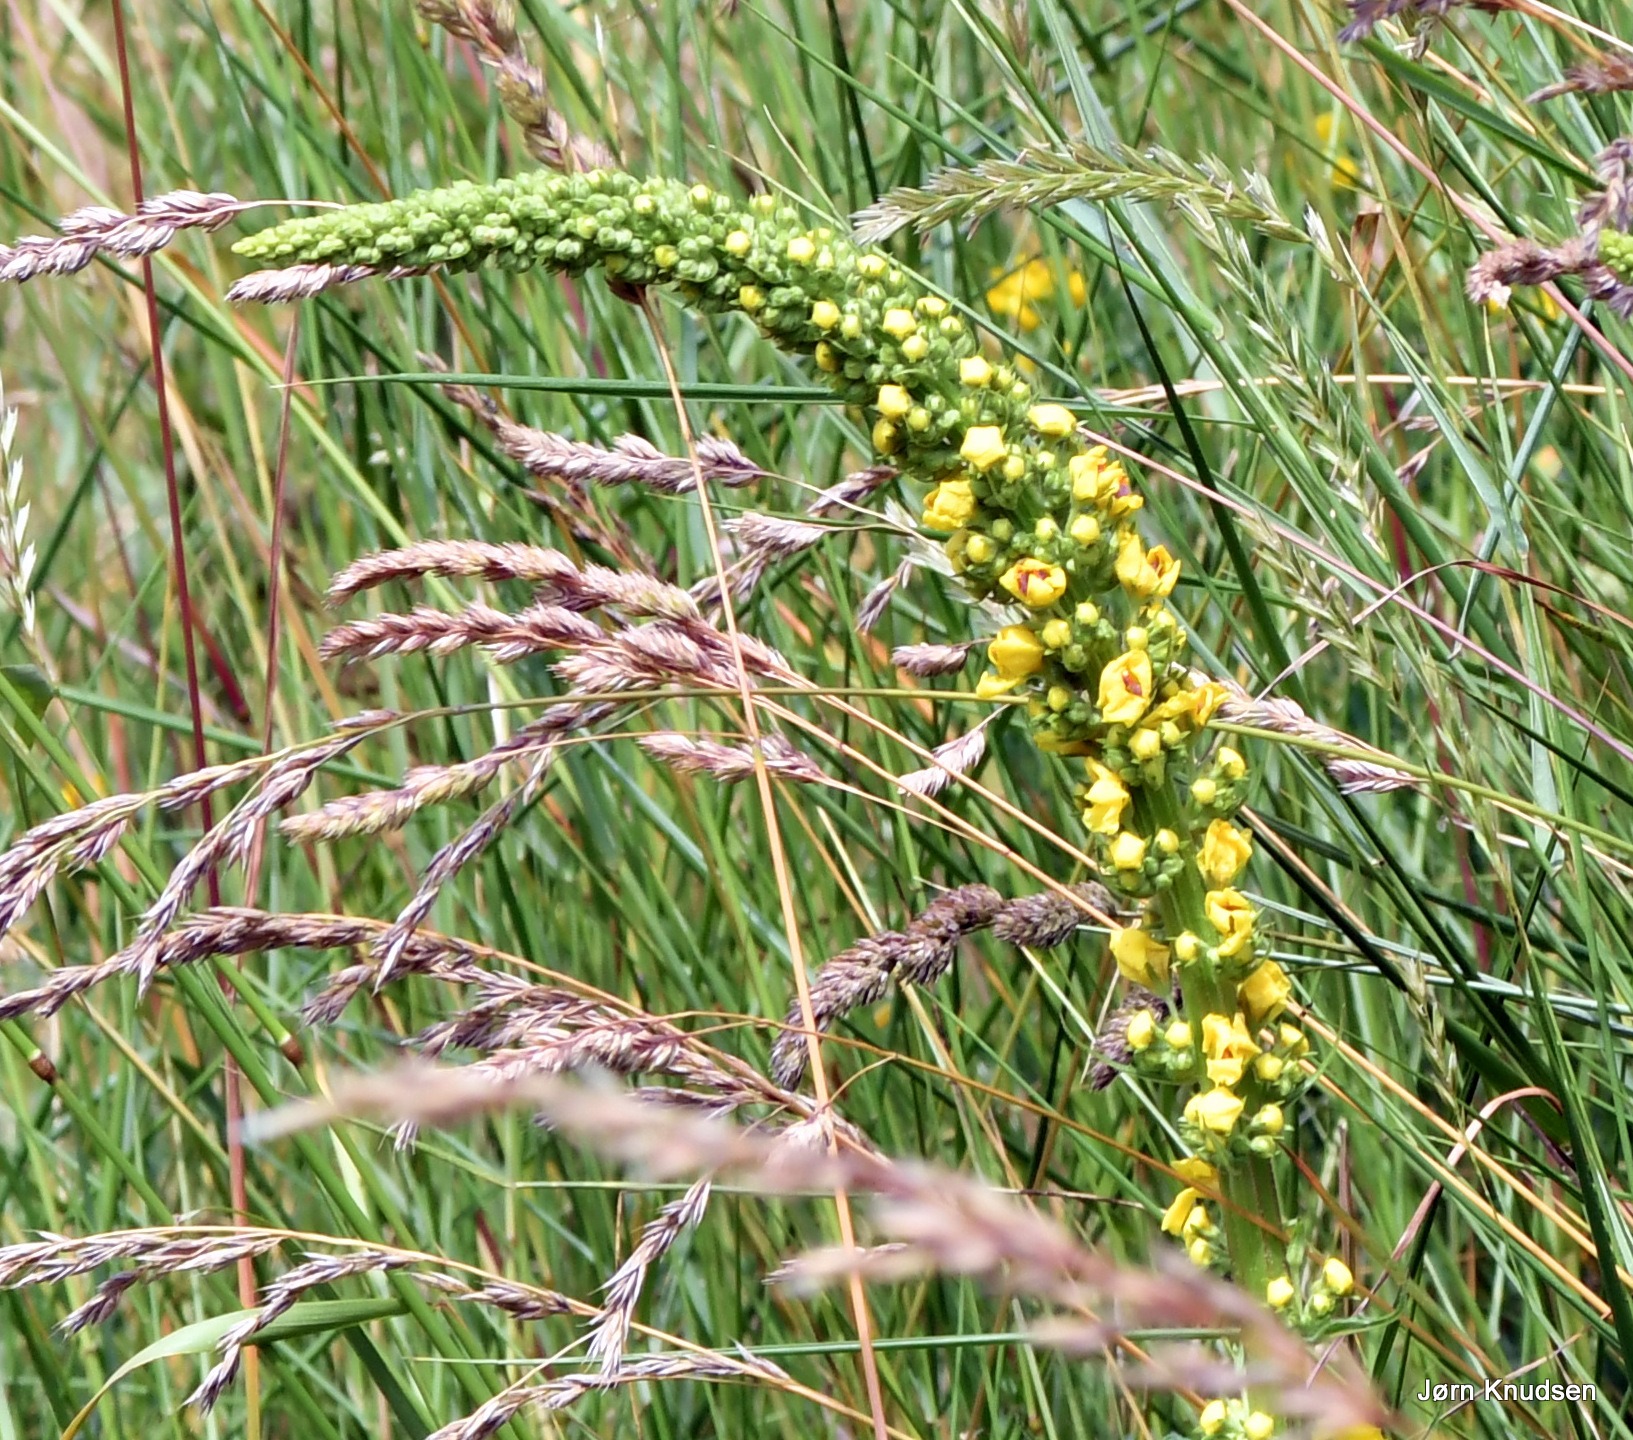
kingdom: Plantae
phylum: Tracheophyta
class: Magnoliopsida
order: Lamiales
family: Scrophulariaceae
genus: Verbascum
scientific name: Verbascum nigrum
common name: Mørk kongelys
